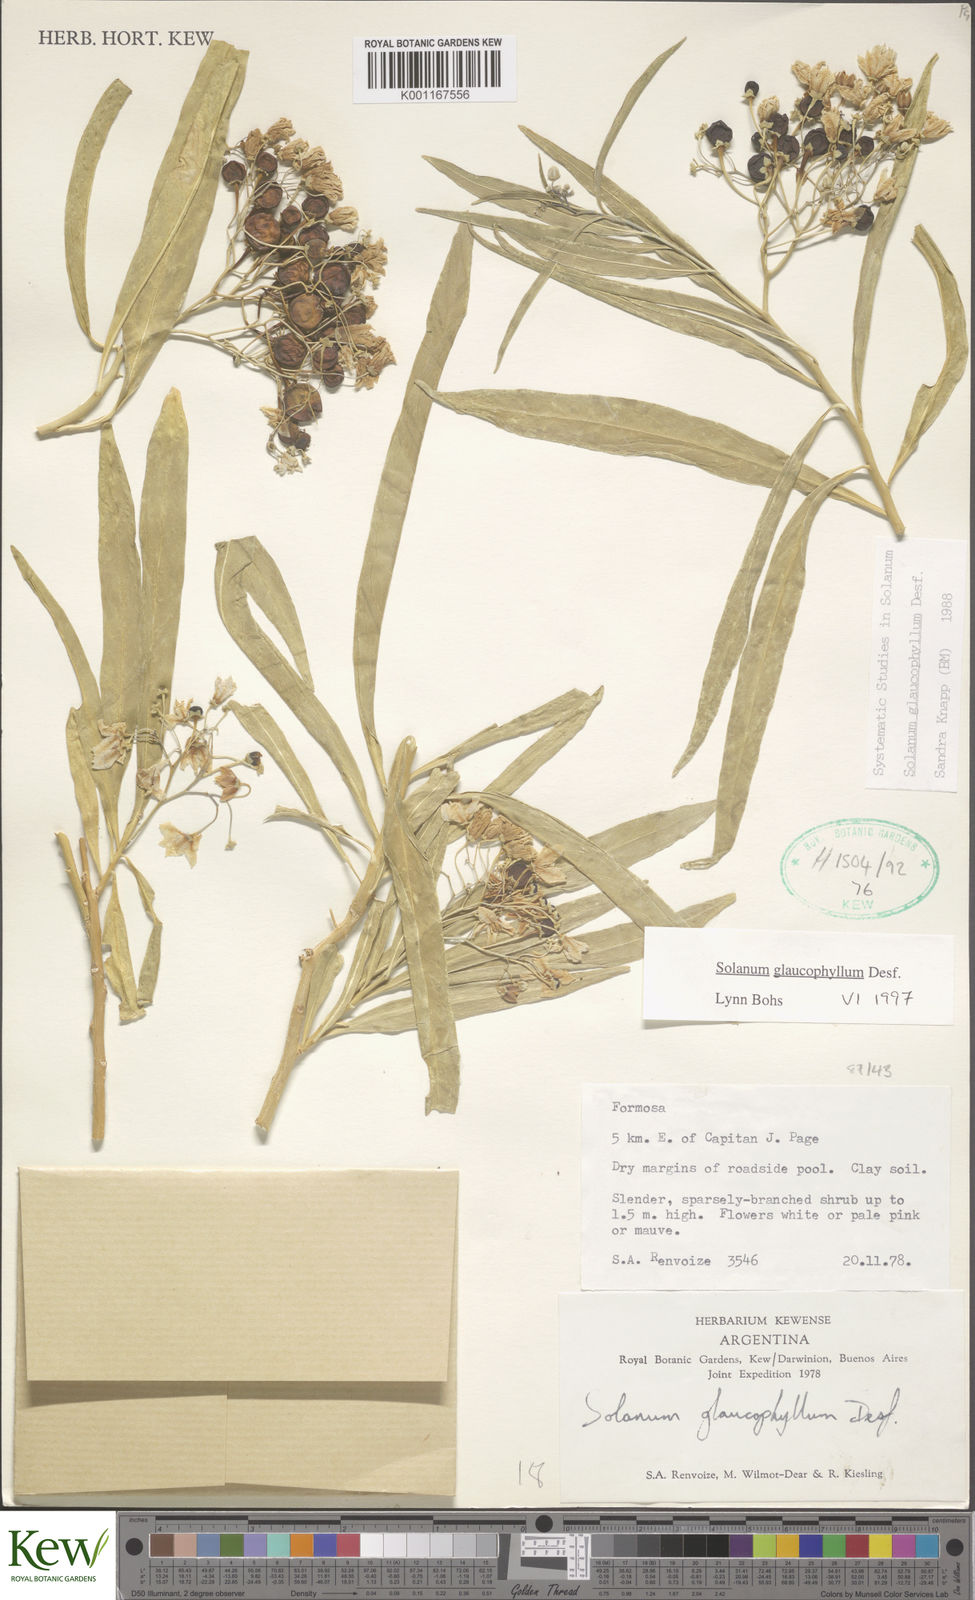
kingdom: Plantae
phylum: Tracheophyta
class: Magnoliopsida
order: Solanales
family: Solanaceae
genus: Solanum
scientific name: Solanum glaucophyllum
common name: Waxyleaf nightshade
